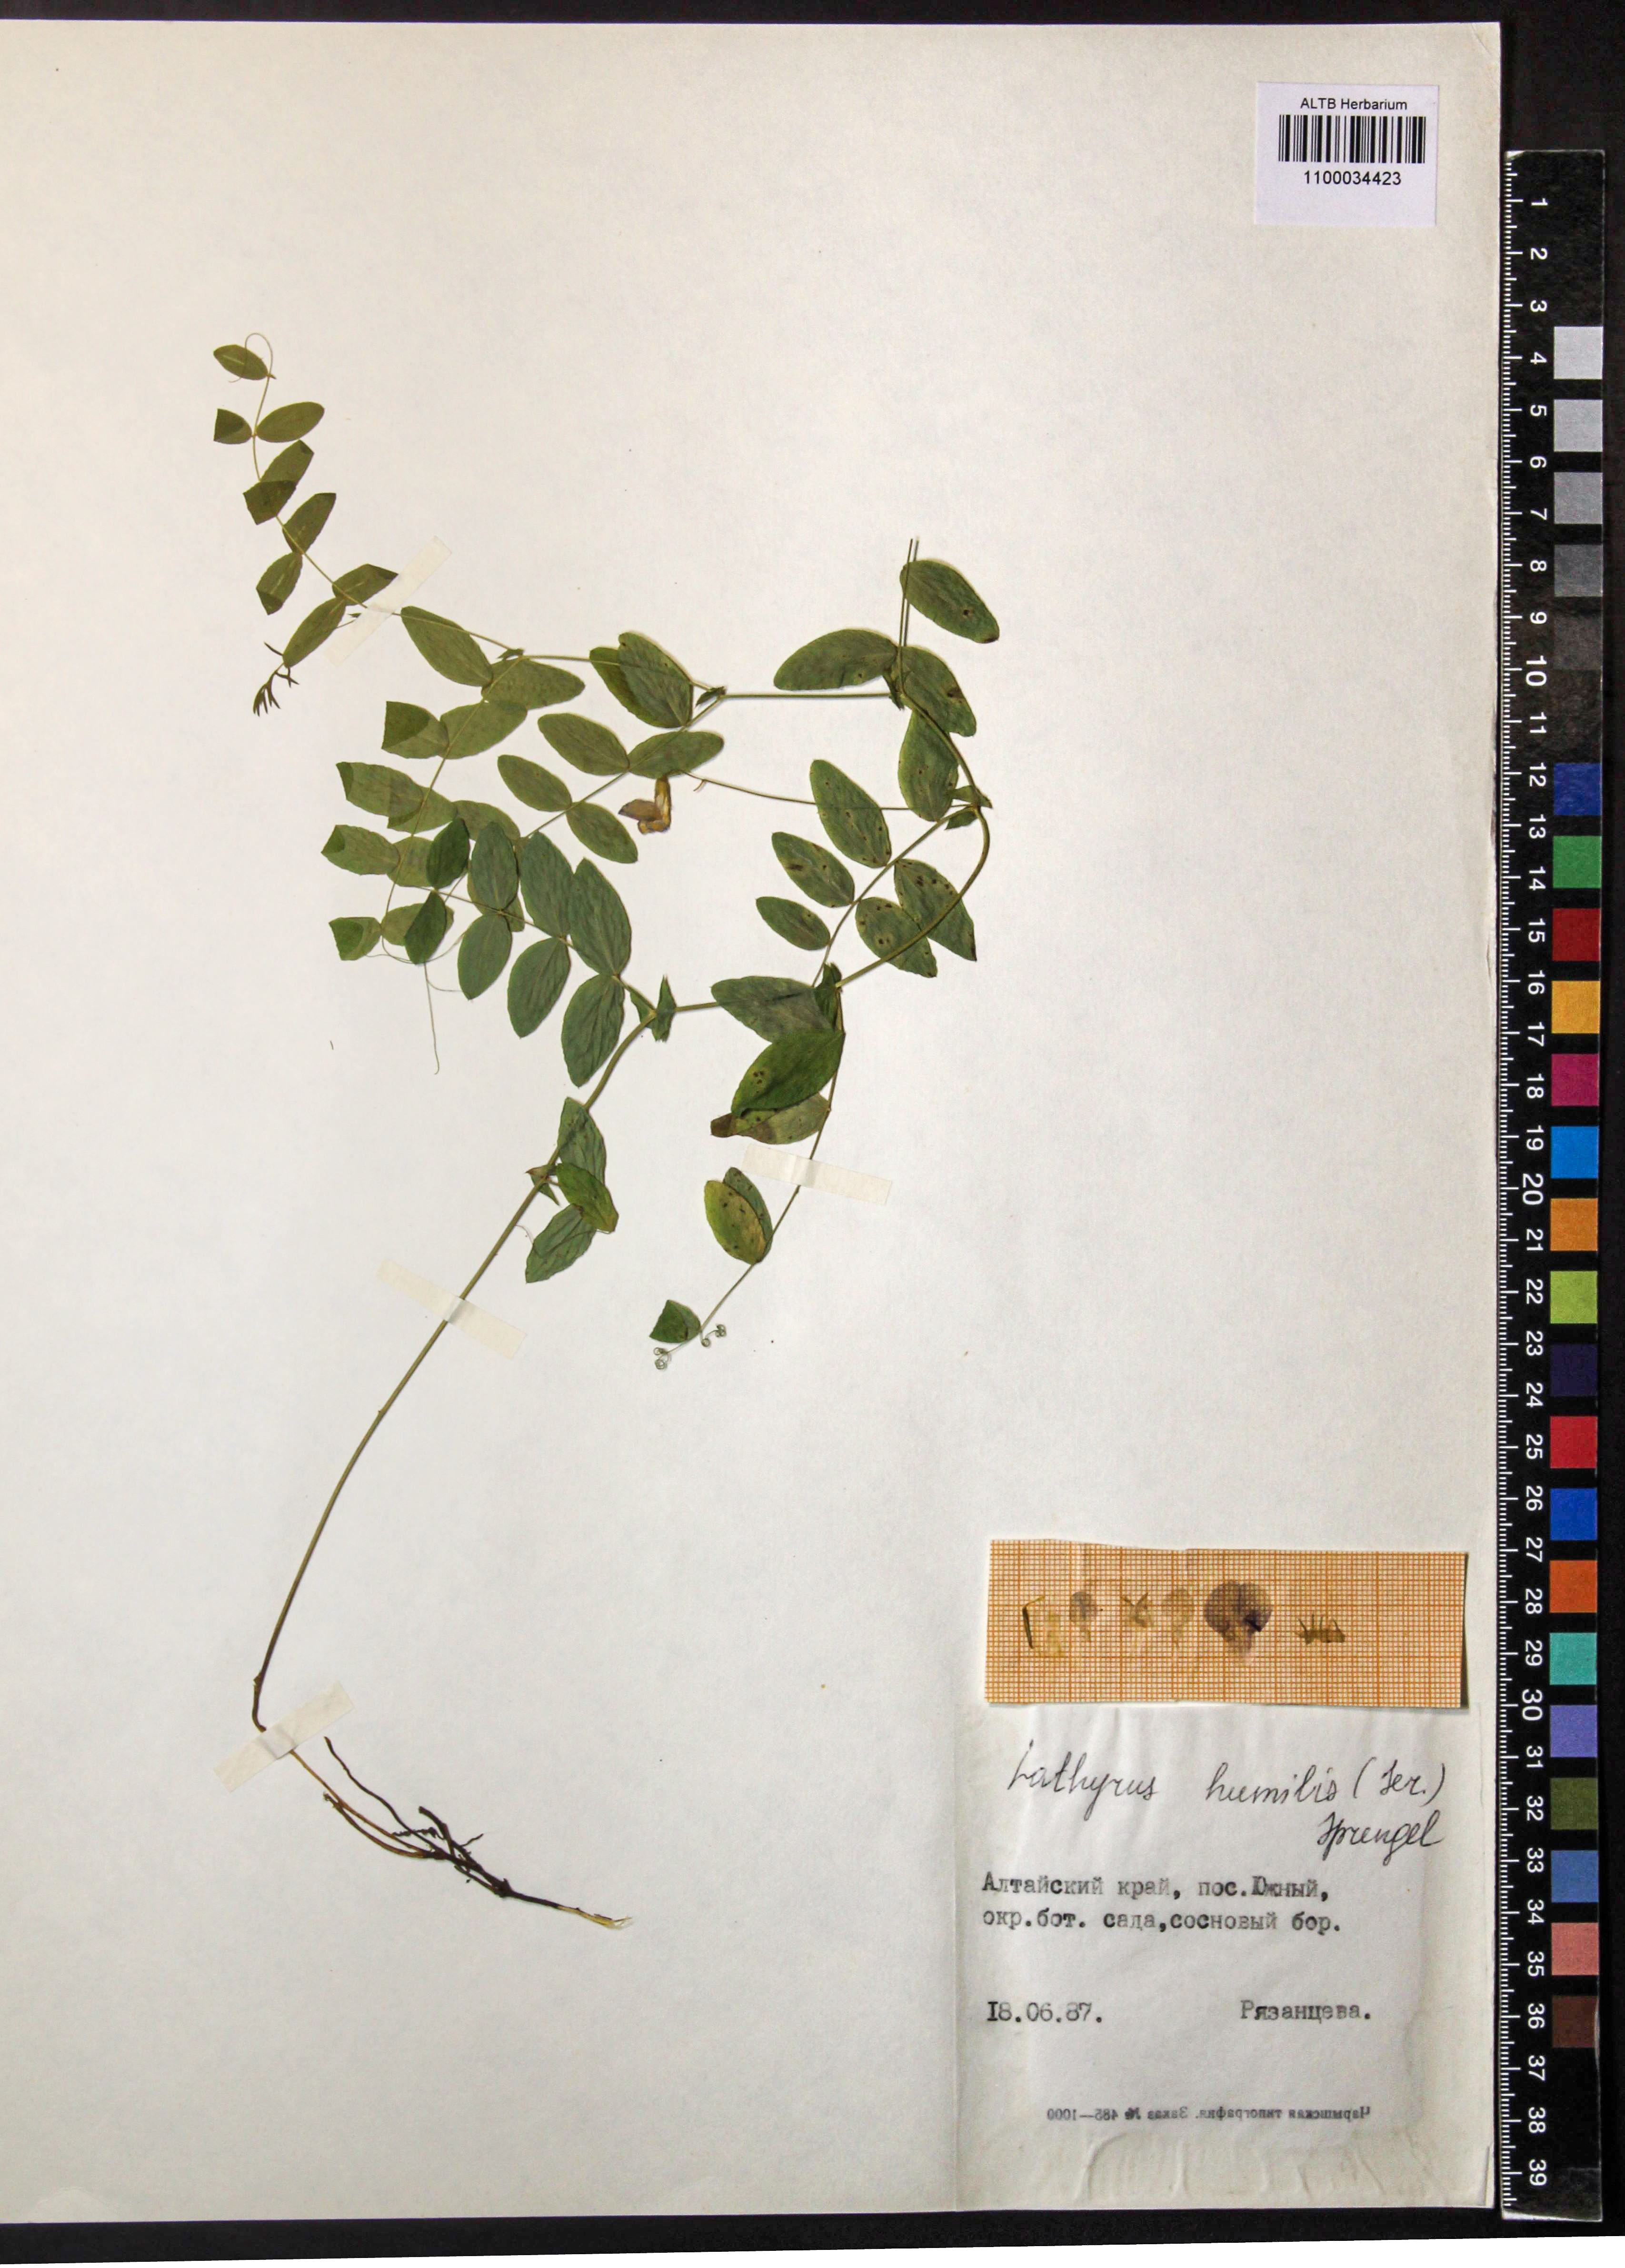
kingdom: Plantae
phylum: Tracheophyta
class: Magnoliopsida
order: Fabales
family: Fabaceae
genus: Lathyrus
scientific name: Lathyrus humilis
